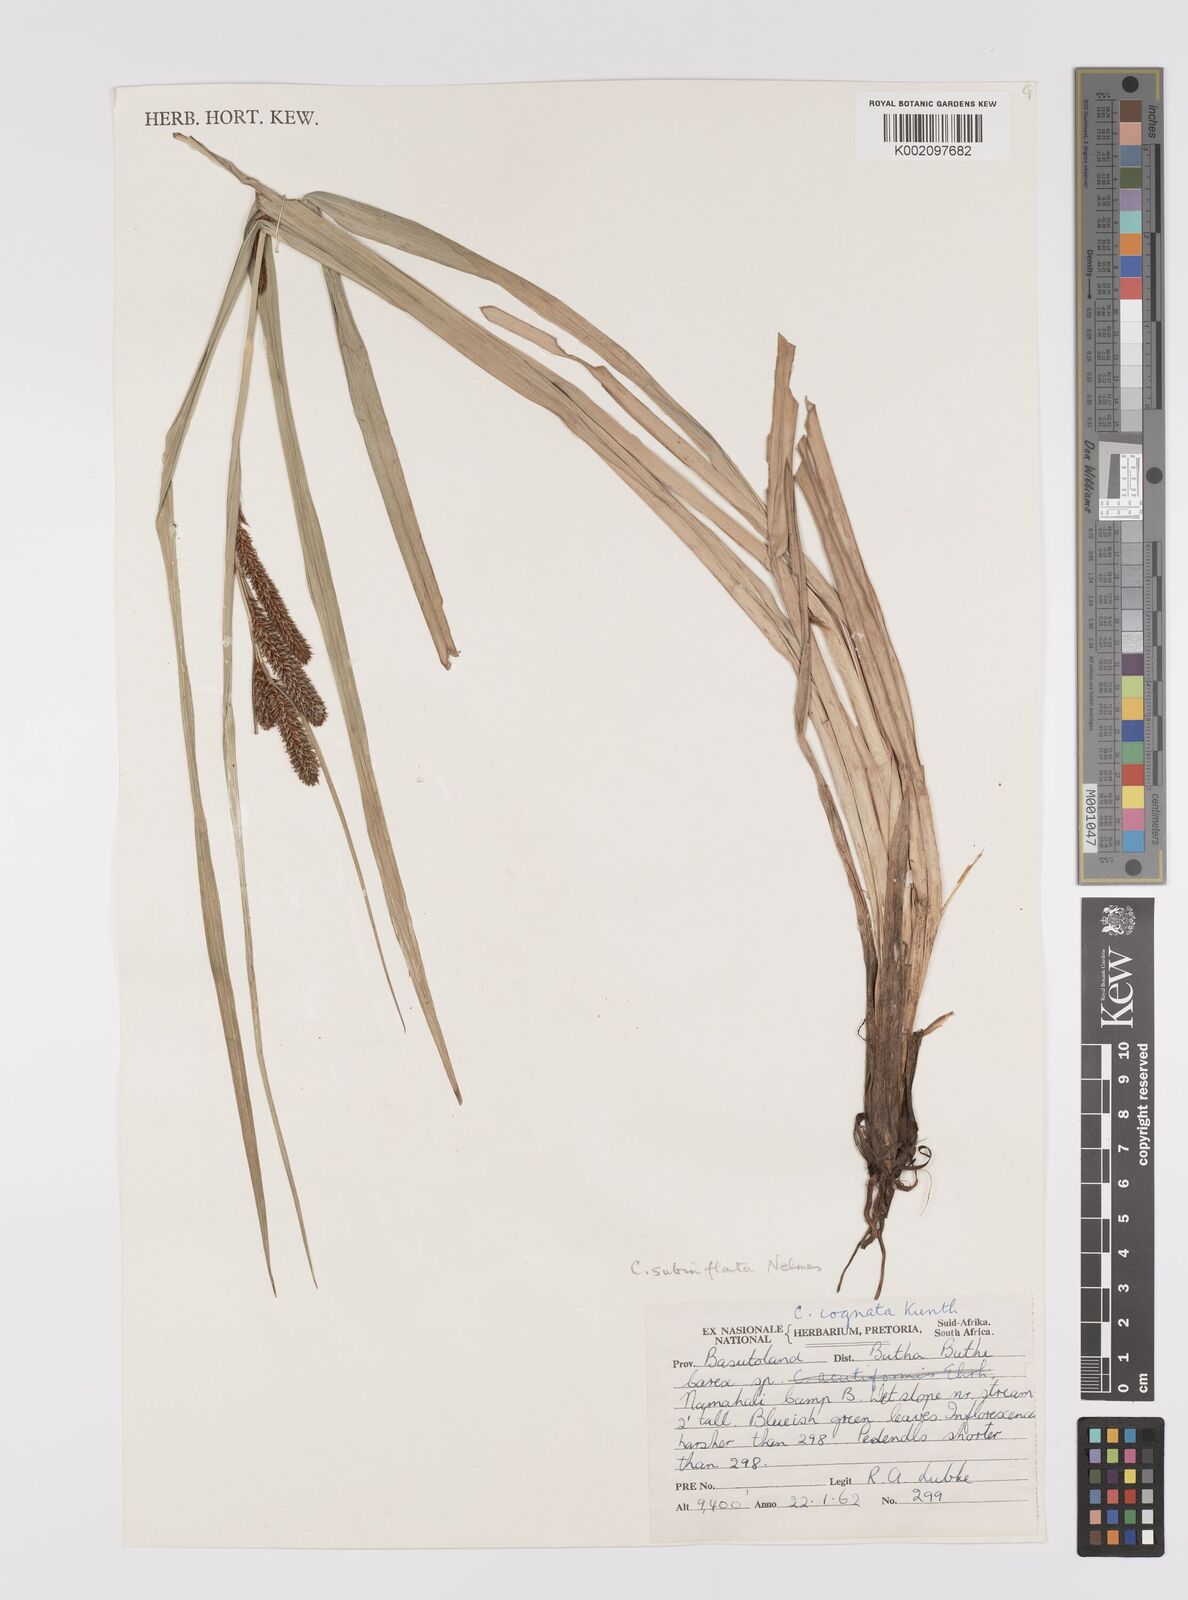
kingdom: Plantae
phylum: Tracheophyta
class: Liliopsida
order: Poales
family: Cyperaceae
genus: Carex
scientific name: Carex subinflata
